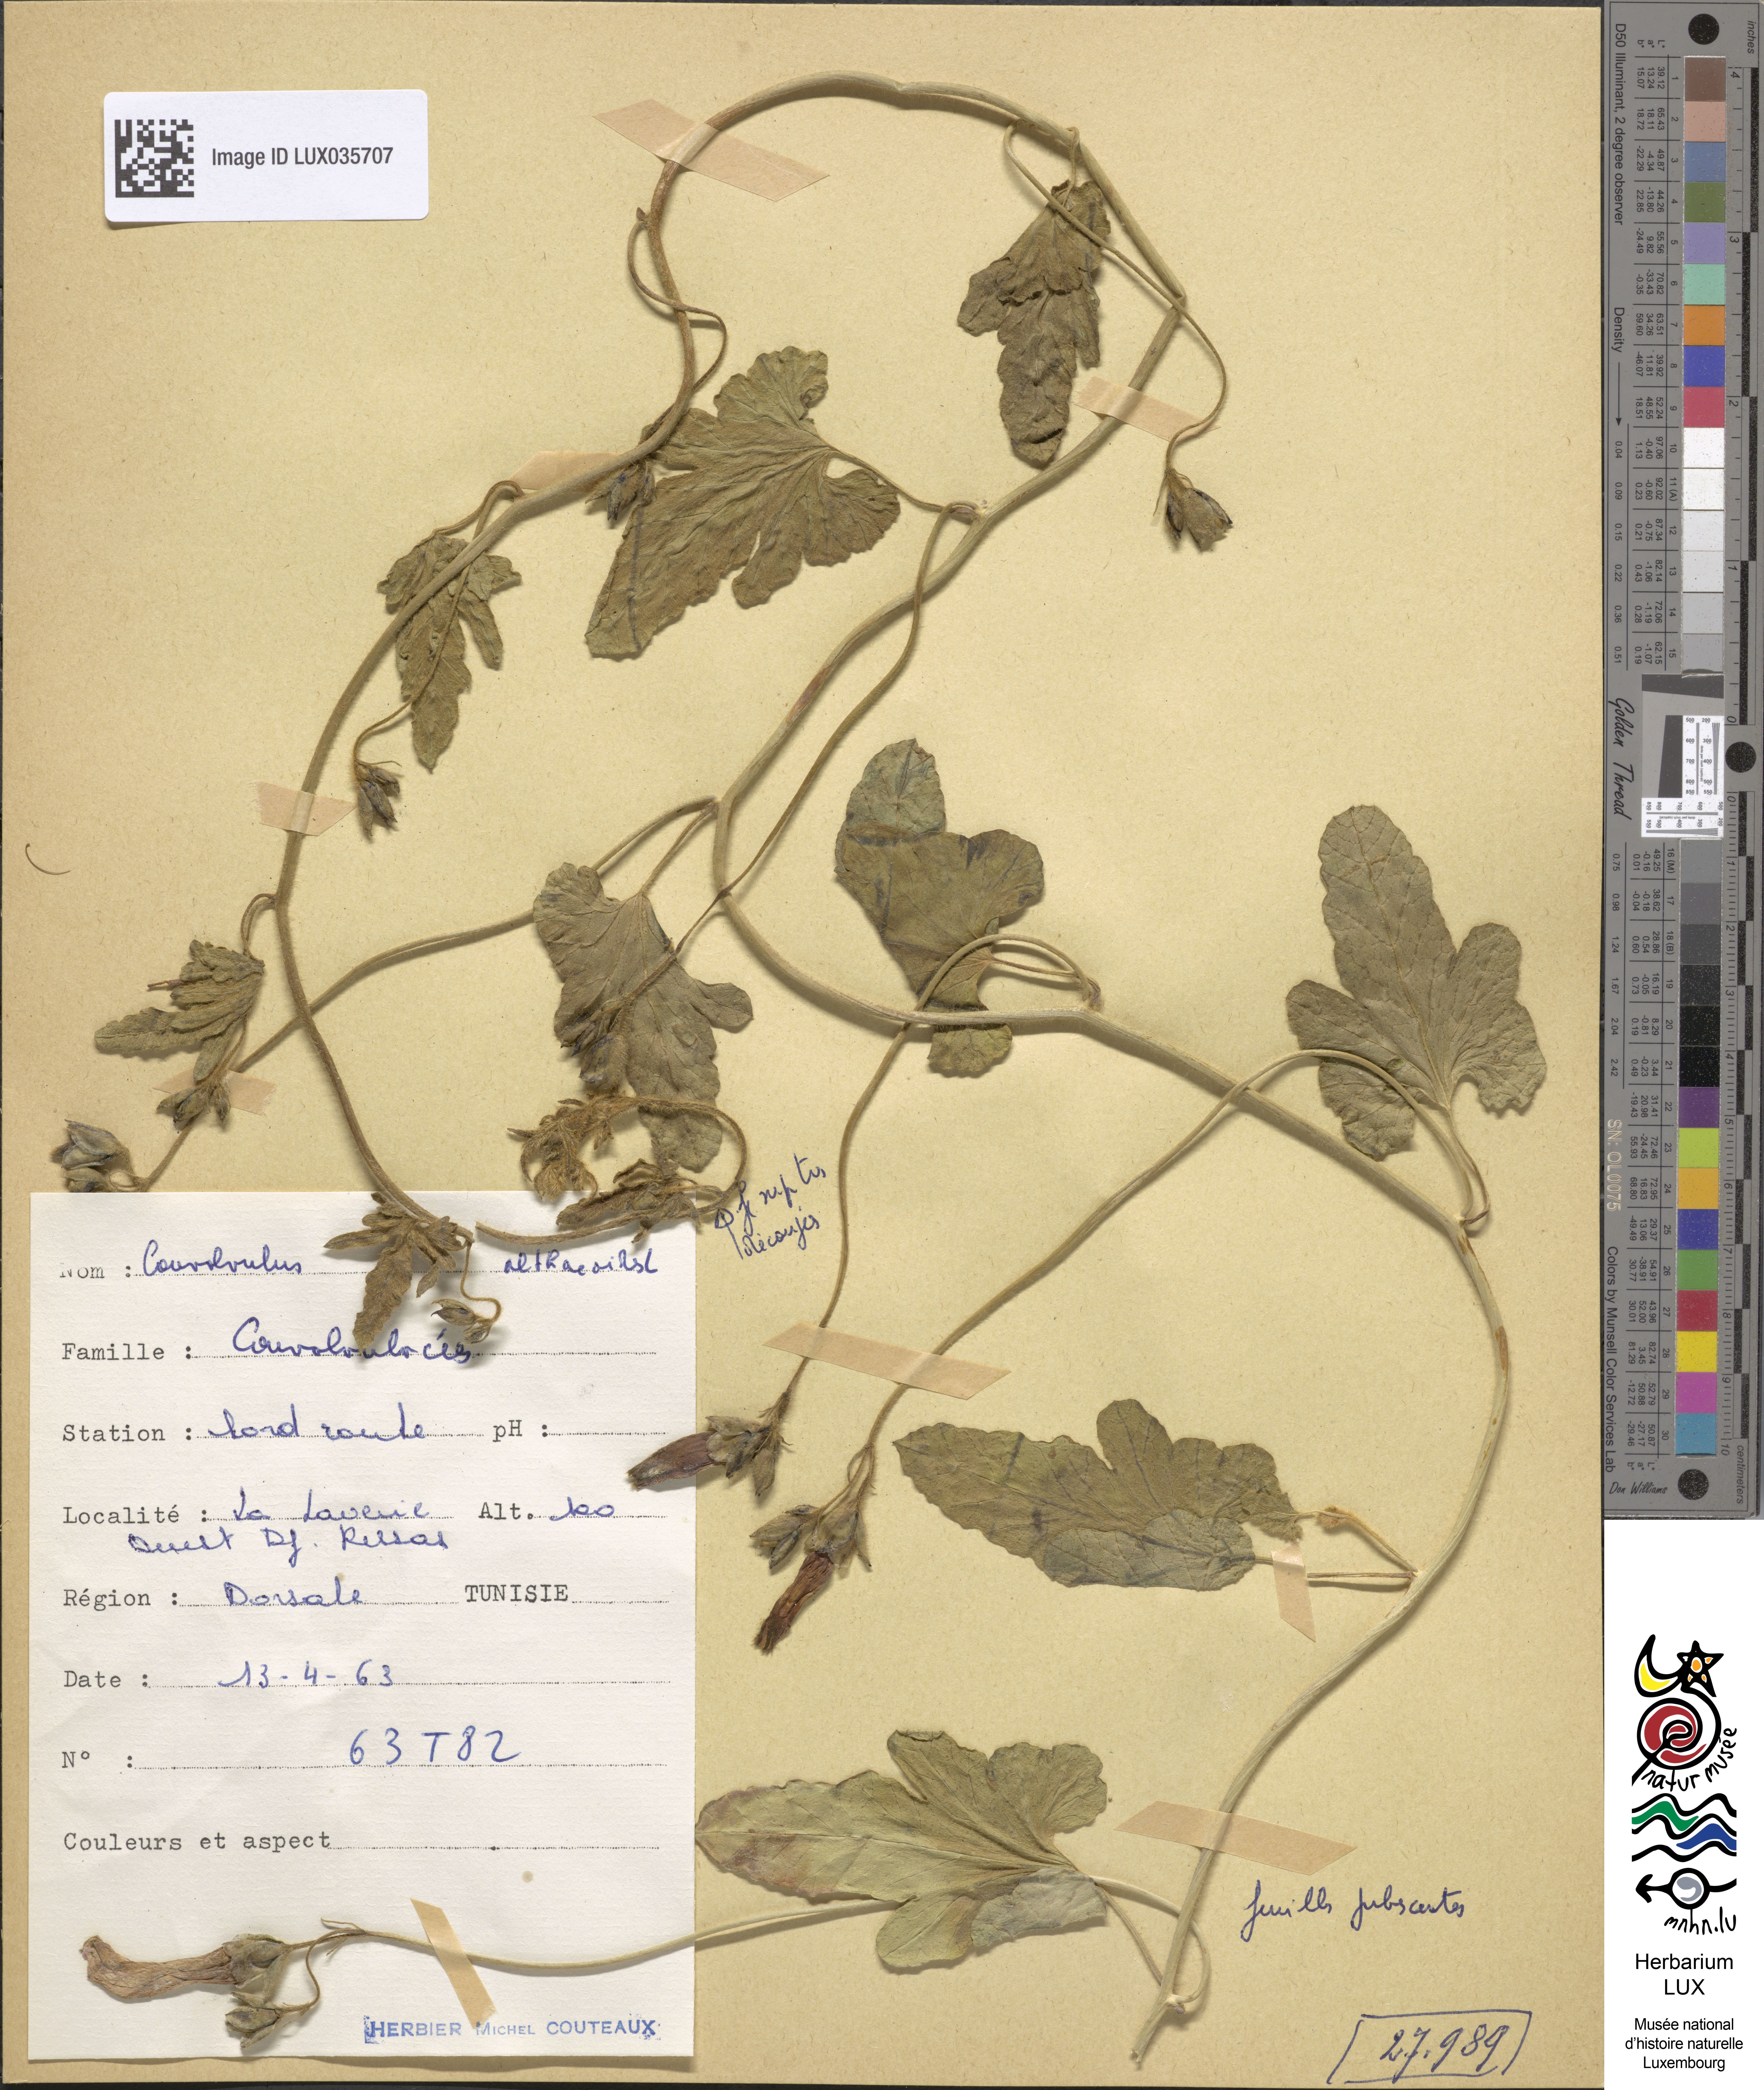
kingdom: Plantae
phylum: Tracheophyta
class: Magnoliopsida
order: Solanales
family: Convolvulaceae
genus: Convolvulus
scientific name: Convolvulus althaeoides
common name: Mallow bindweed
